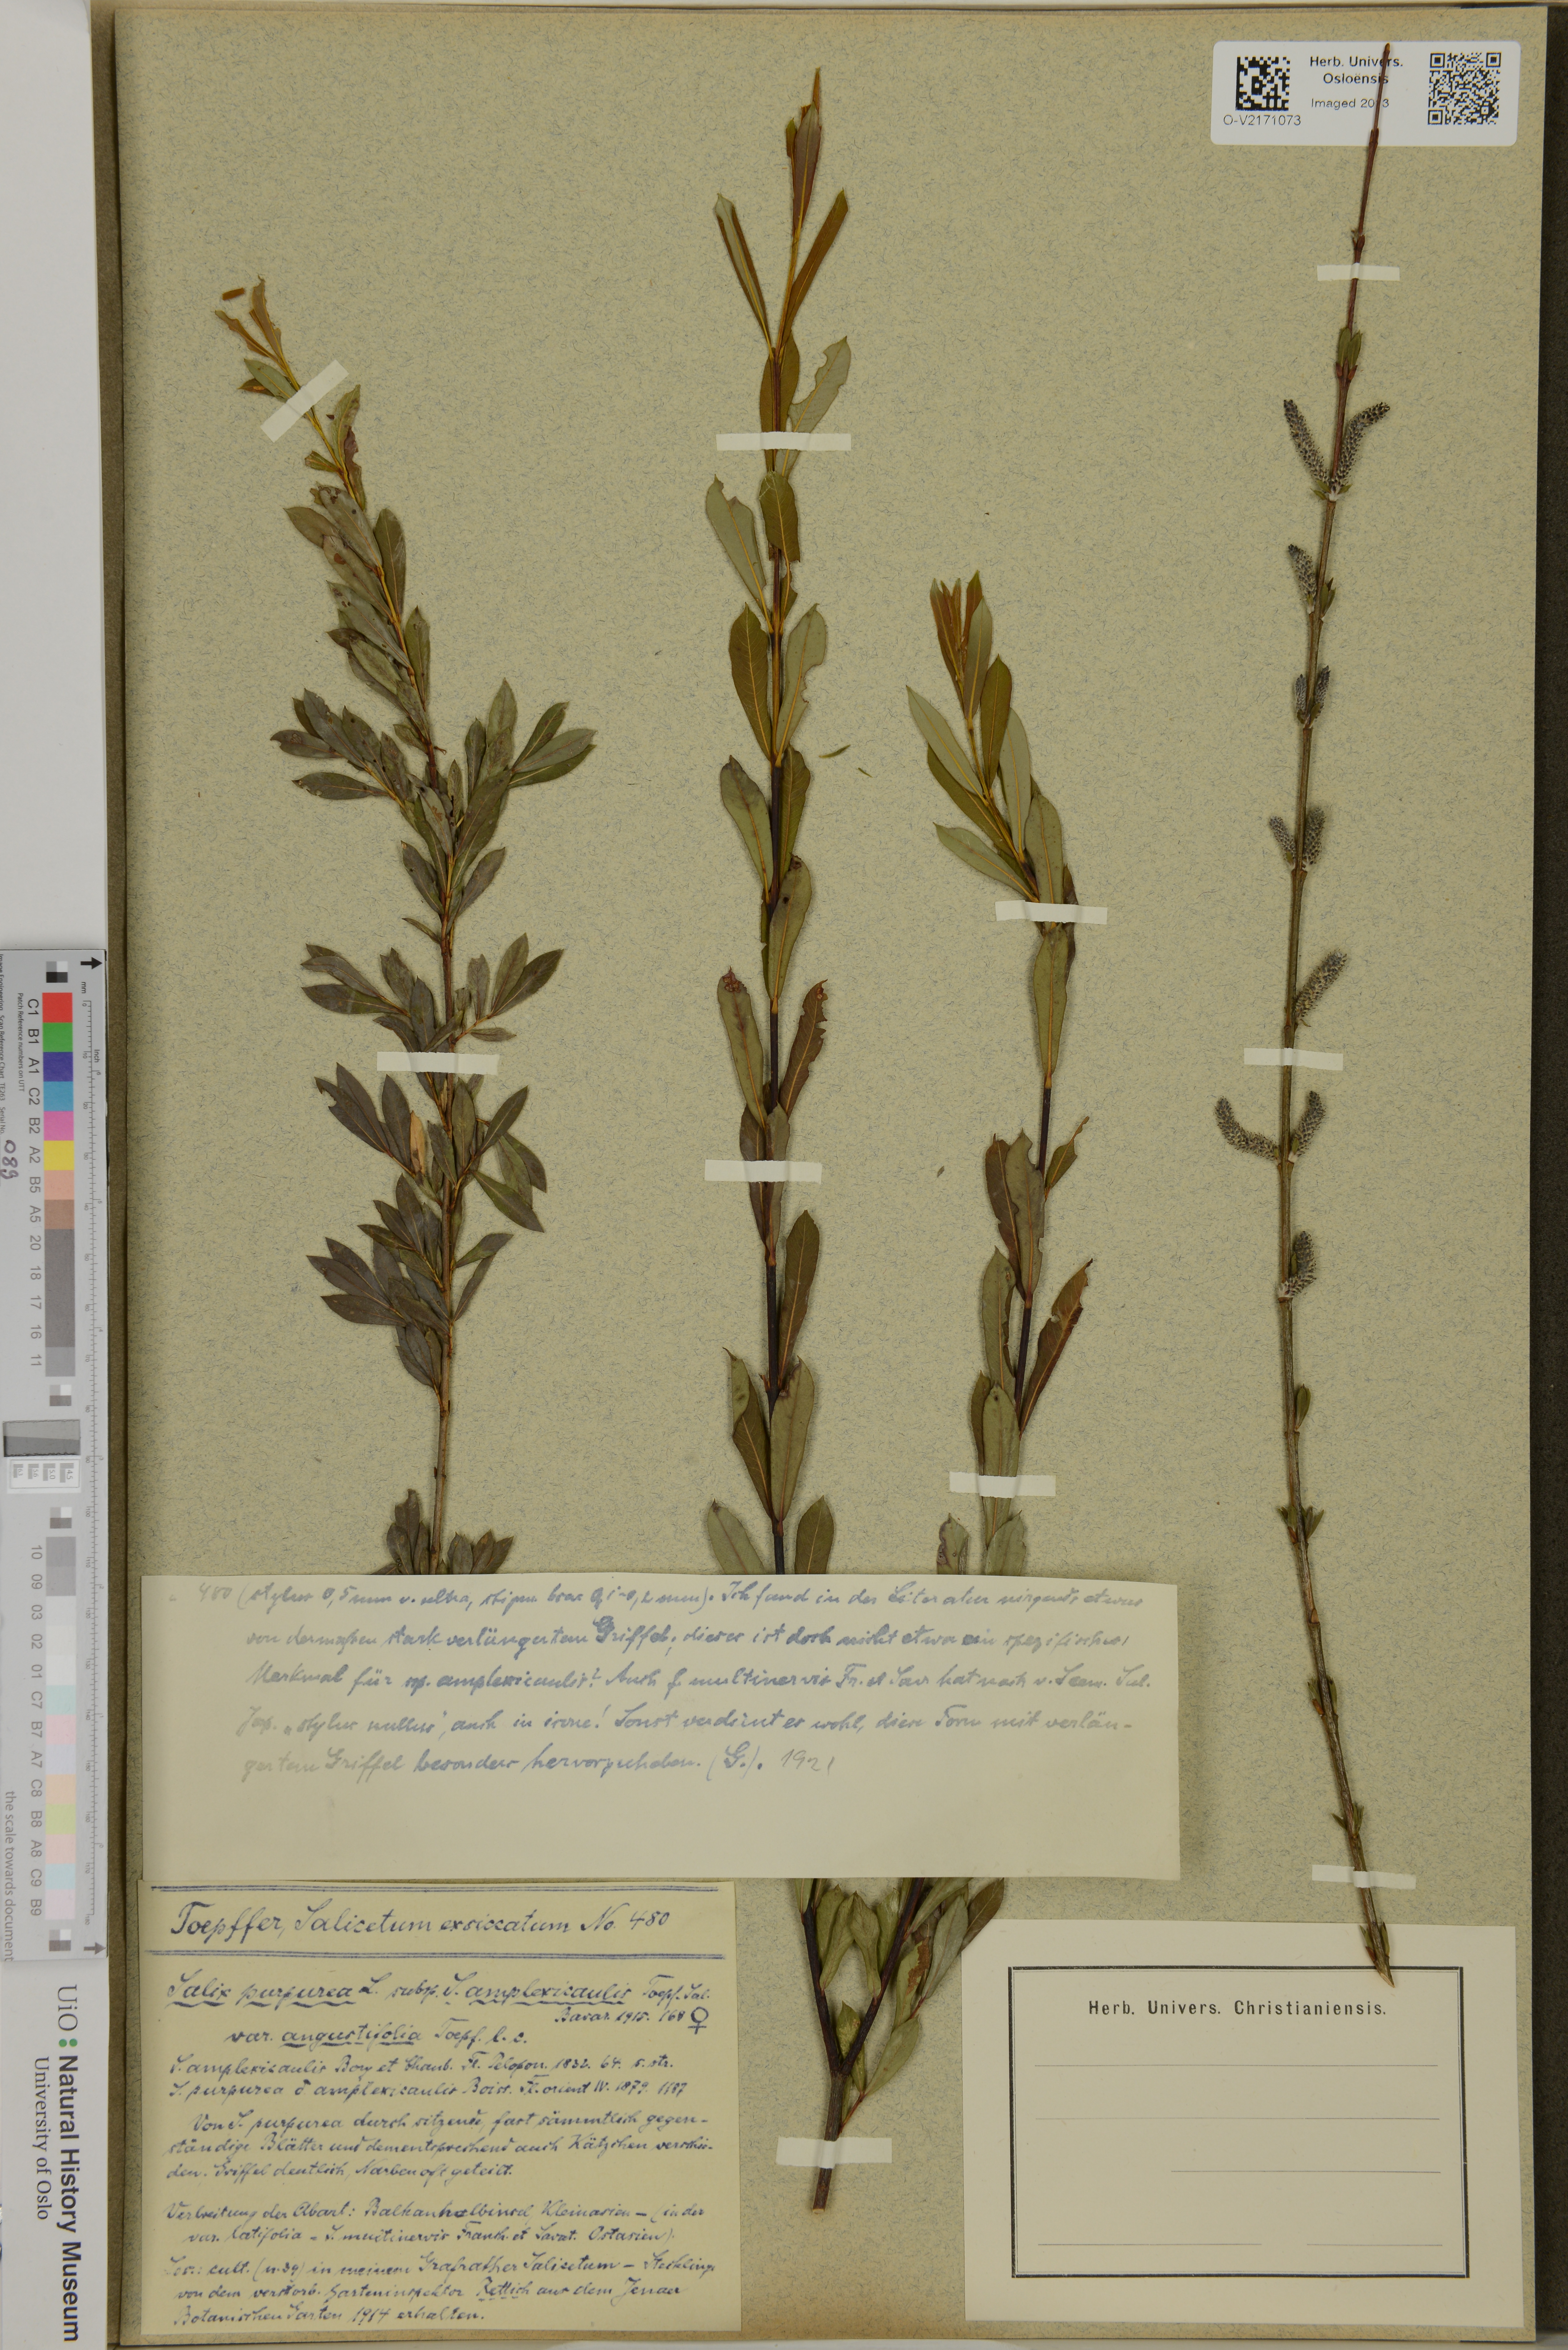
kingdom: Plantae
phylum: Tracheophyta
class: Magnoliopsida
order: Malpighiales
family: Salicaceae
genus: Salix
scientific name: Salix purpurea
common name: Purple willow
